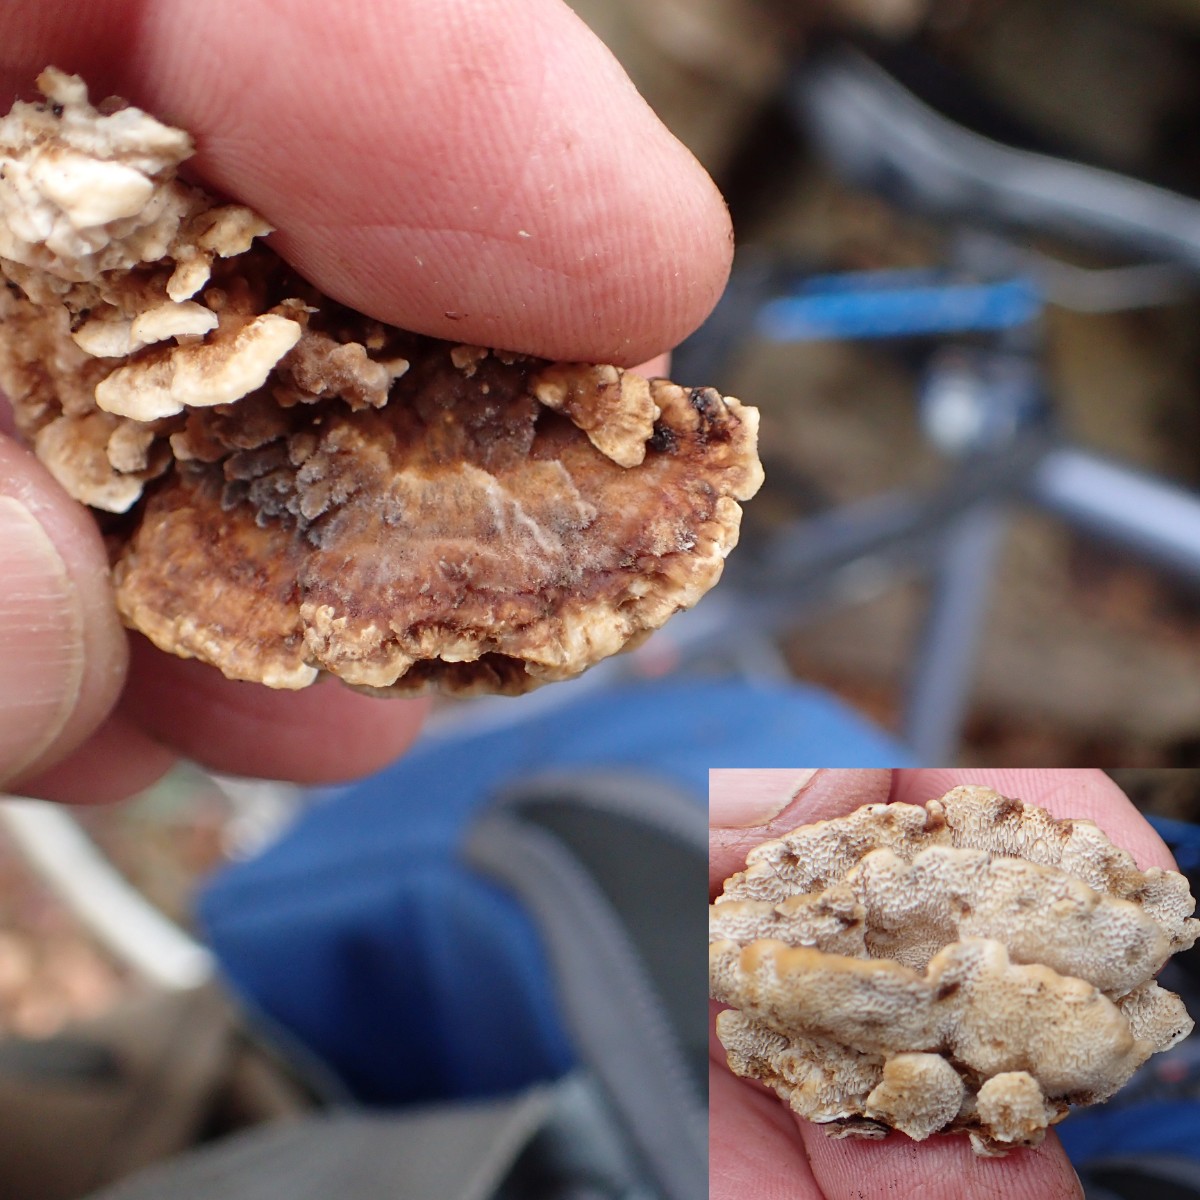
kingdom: Fungi
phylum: Basidiomycota
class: Agaricomycetes
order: Polyporales
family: Polyporaceae
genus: Podofomes
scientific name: Podofomes mollis
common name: blød begporesvamp
